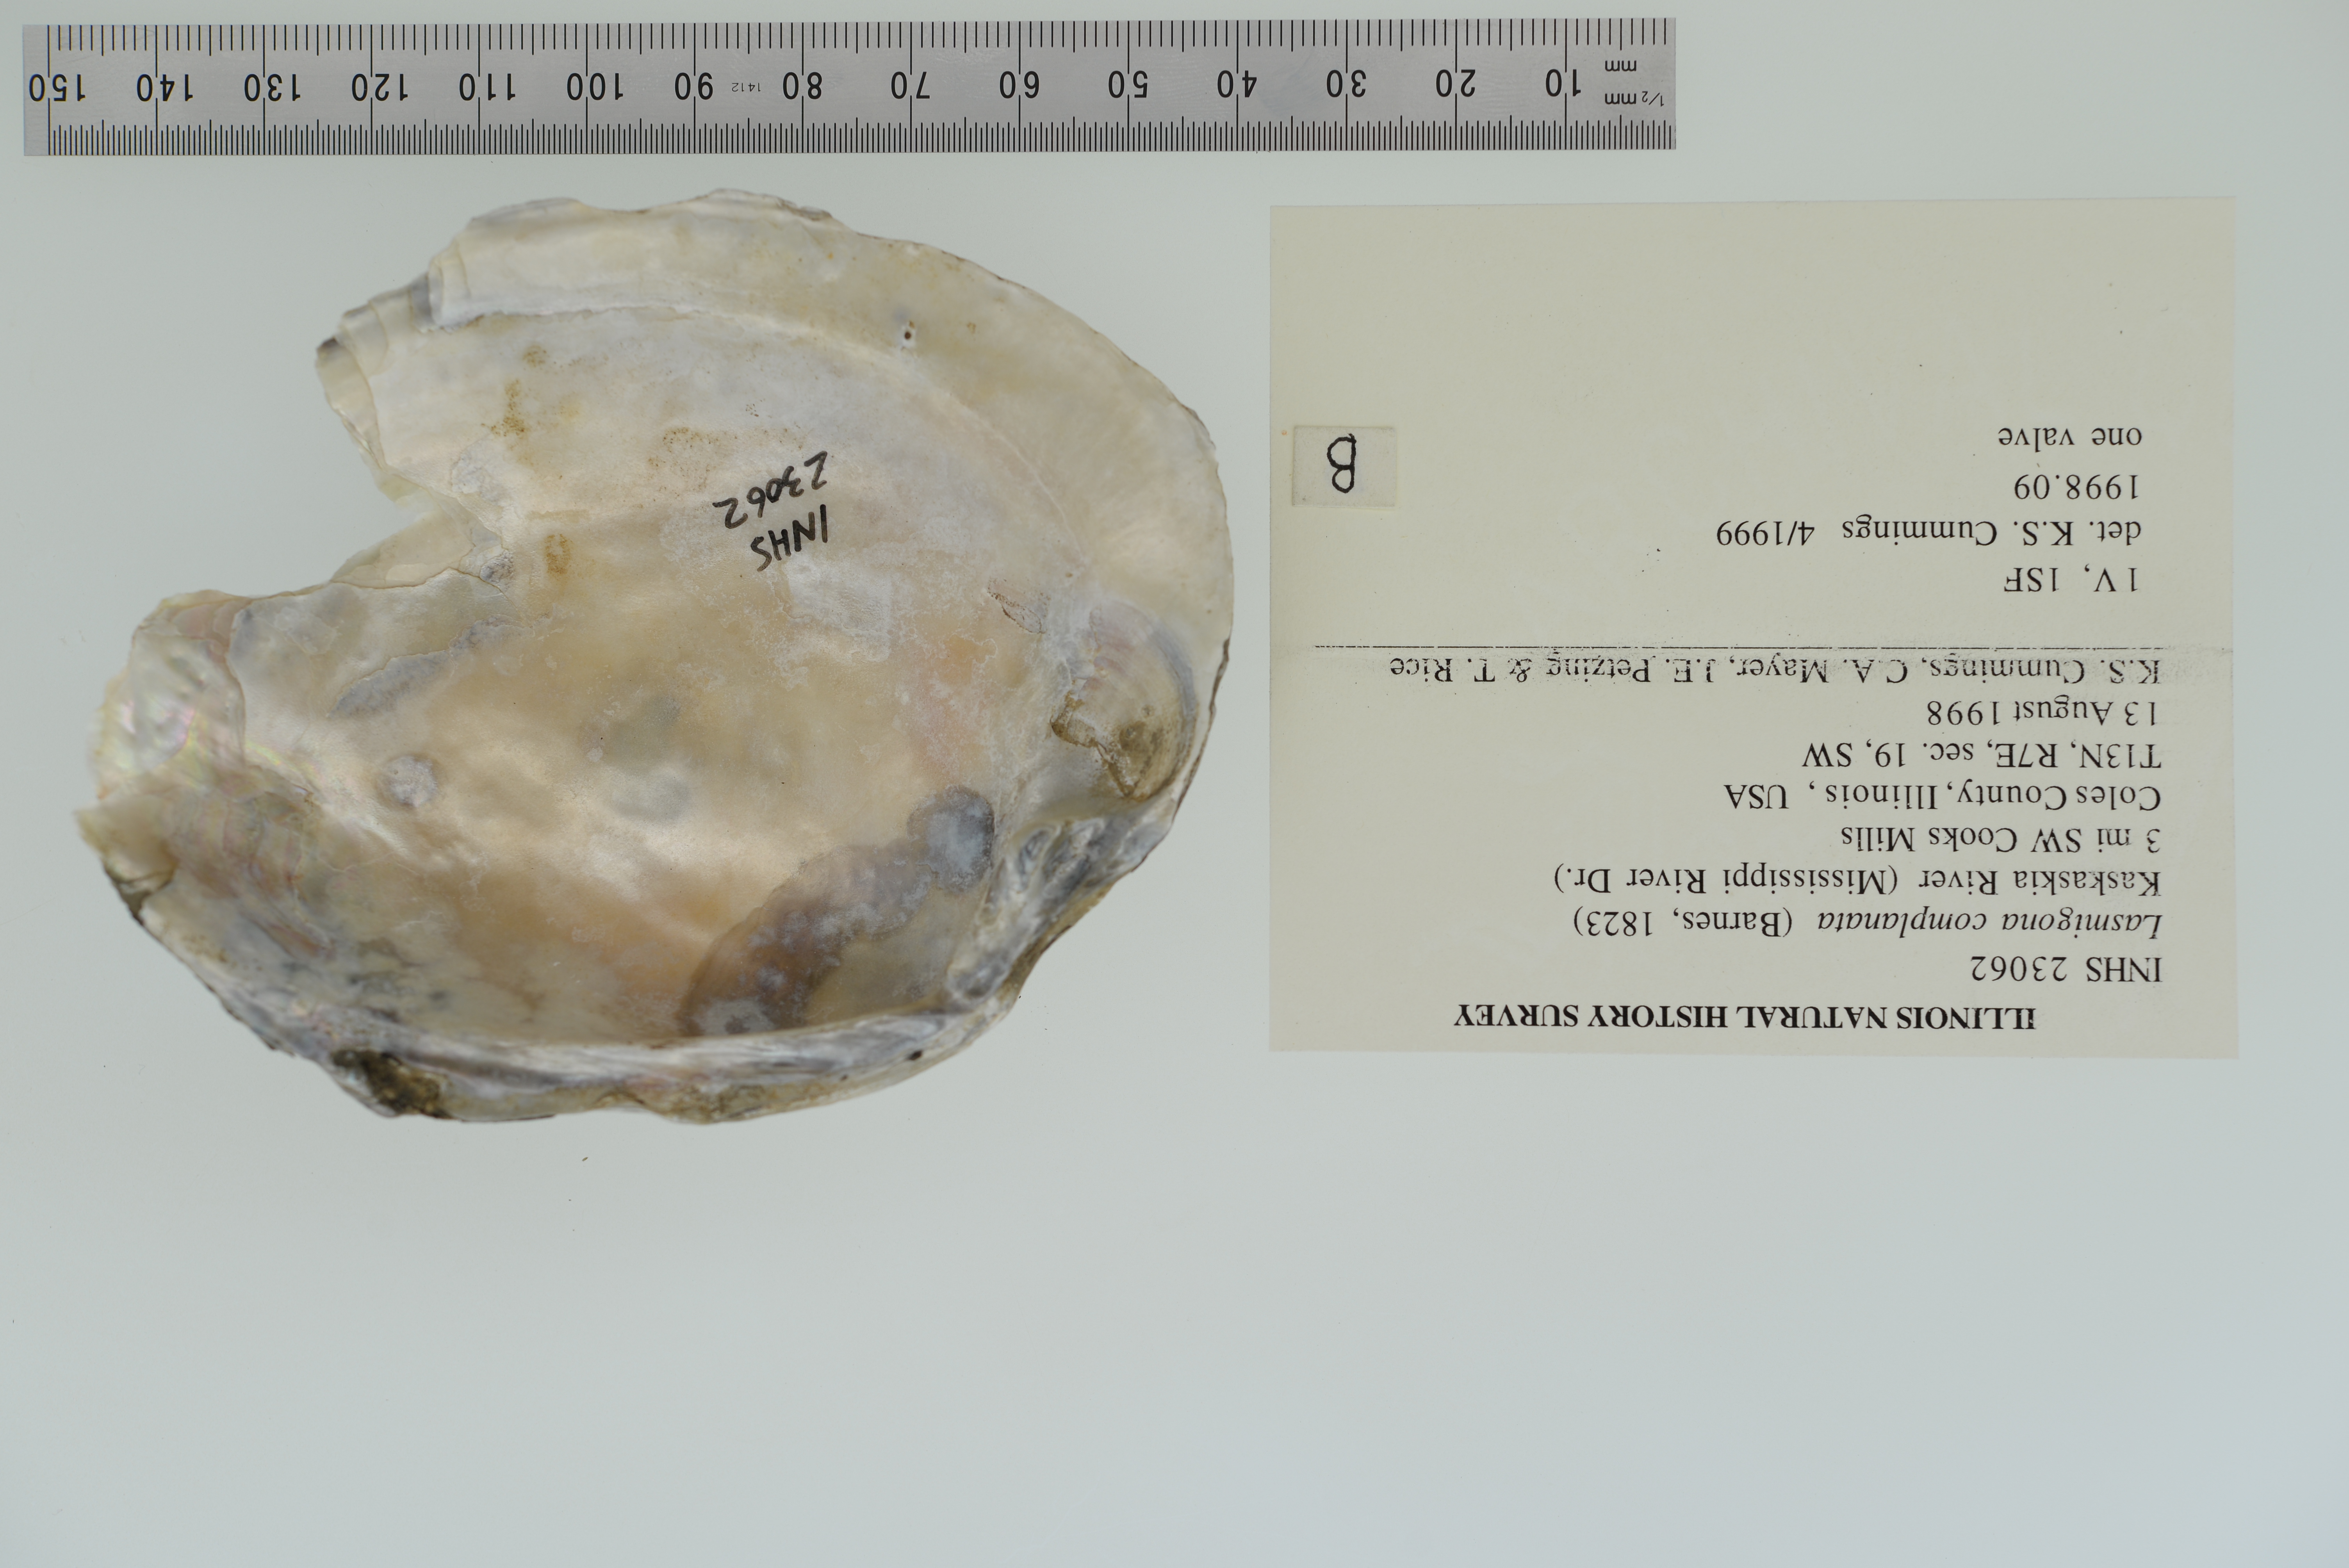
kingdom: Animalia
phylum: Mollusca
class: Bivalvia
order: Unionida
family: Unionidae
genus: Lasmigona
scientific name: Lasmigona complanata
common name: White heelsplitter
